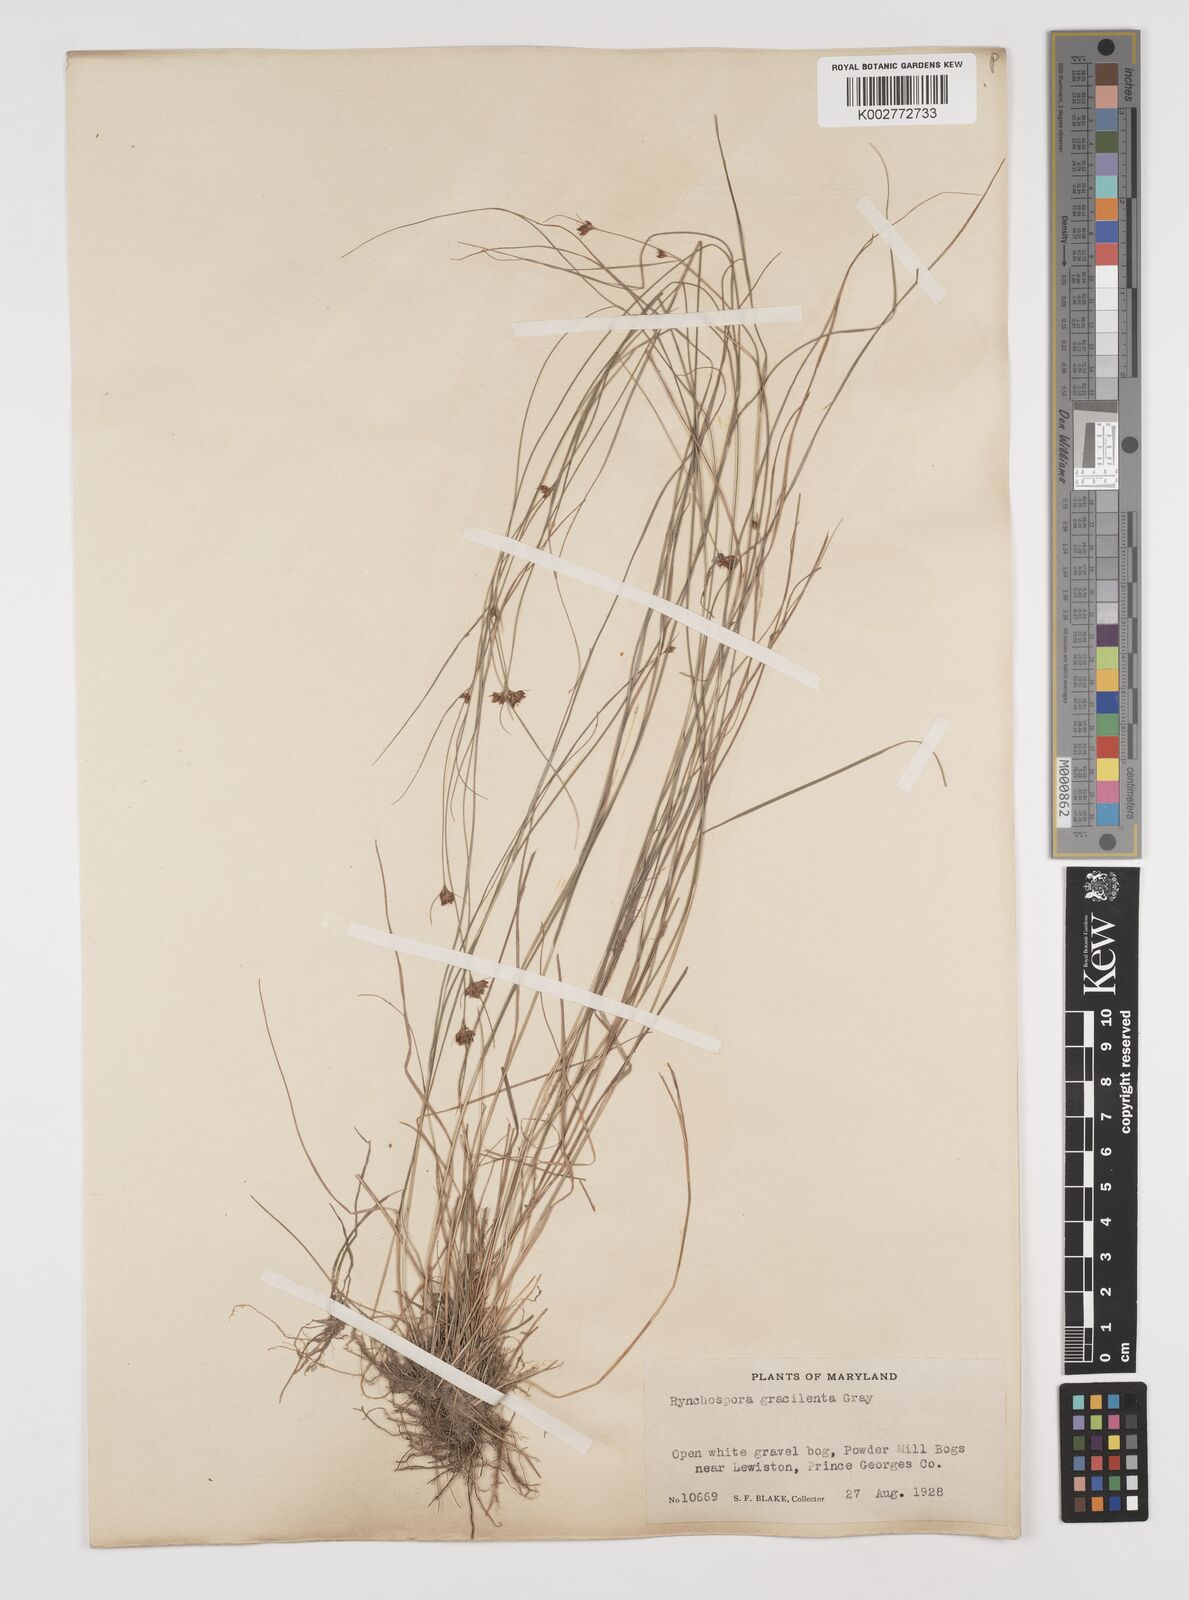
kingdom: Plantae
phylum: Tracheophyta
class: Liliopsida
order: Poales
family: Cyperaceae
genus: Rhynchospora
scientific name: Rhynchospora gracilenta
